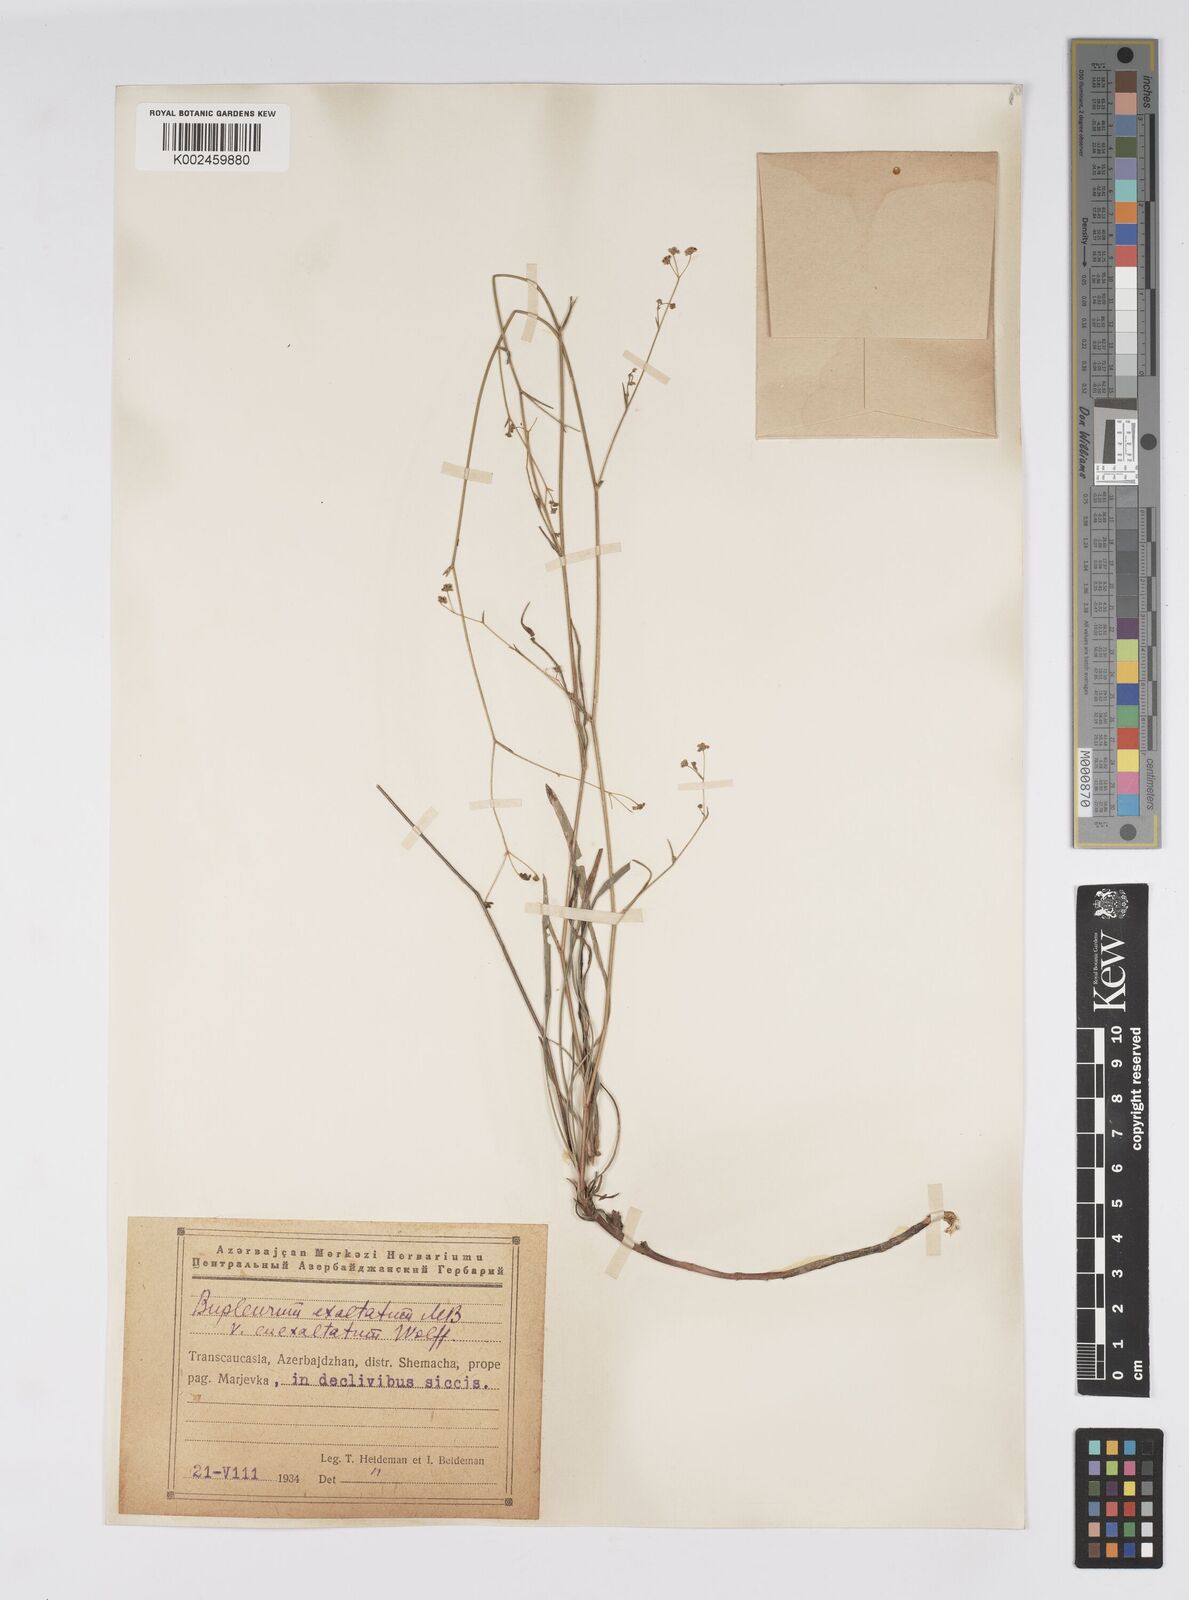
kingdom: Plantae
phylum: Tracheophyta
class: Magnoliopsida
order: Apiales
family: Apiaceae
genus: Bupleurum
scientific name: Bupleurum falcatum
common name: Sickle-leaved hare's-ear
